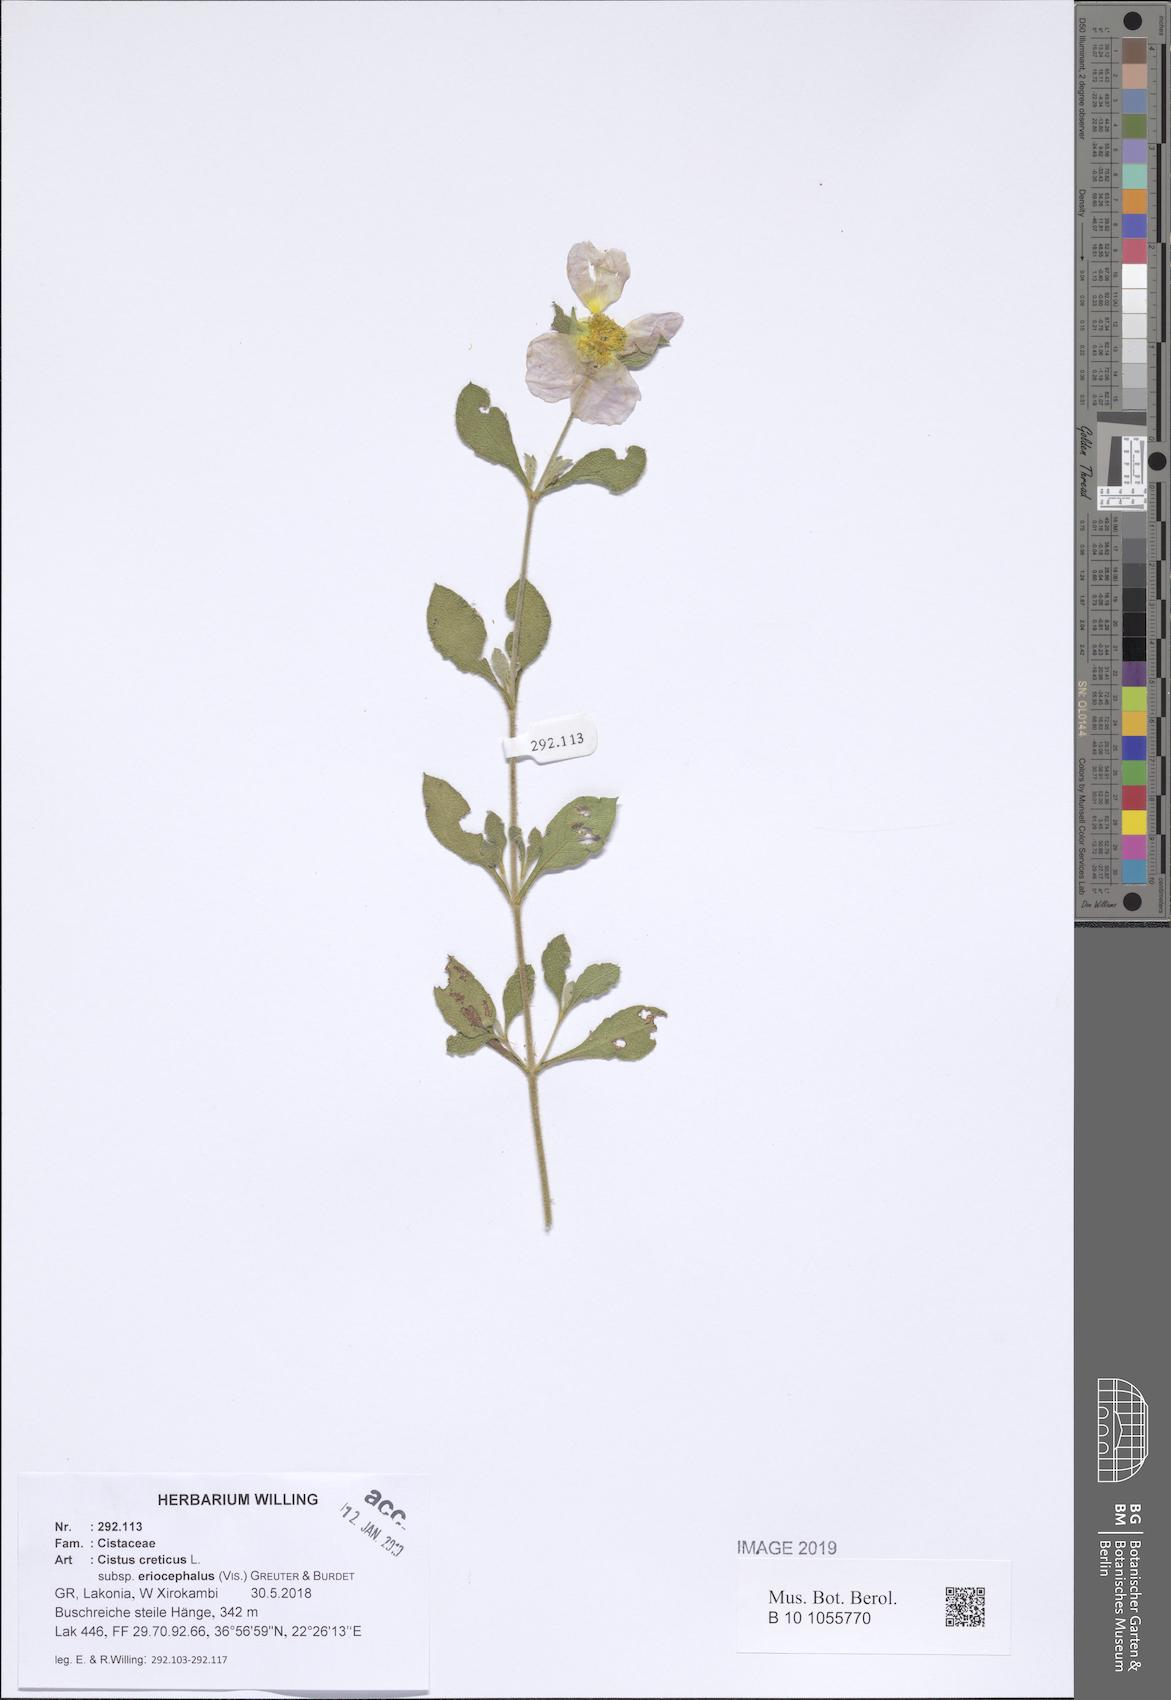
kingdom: Plantae
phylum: Tracheophyta
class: Magnoliopsida
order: Malvales
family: Cistaceae
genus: Cistus
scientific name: Cistus tauricus
